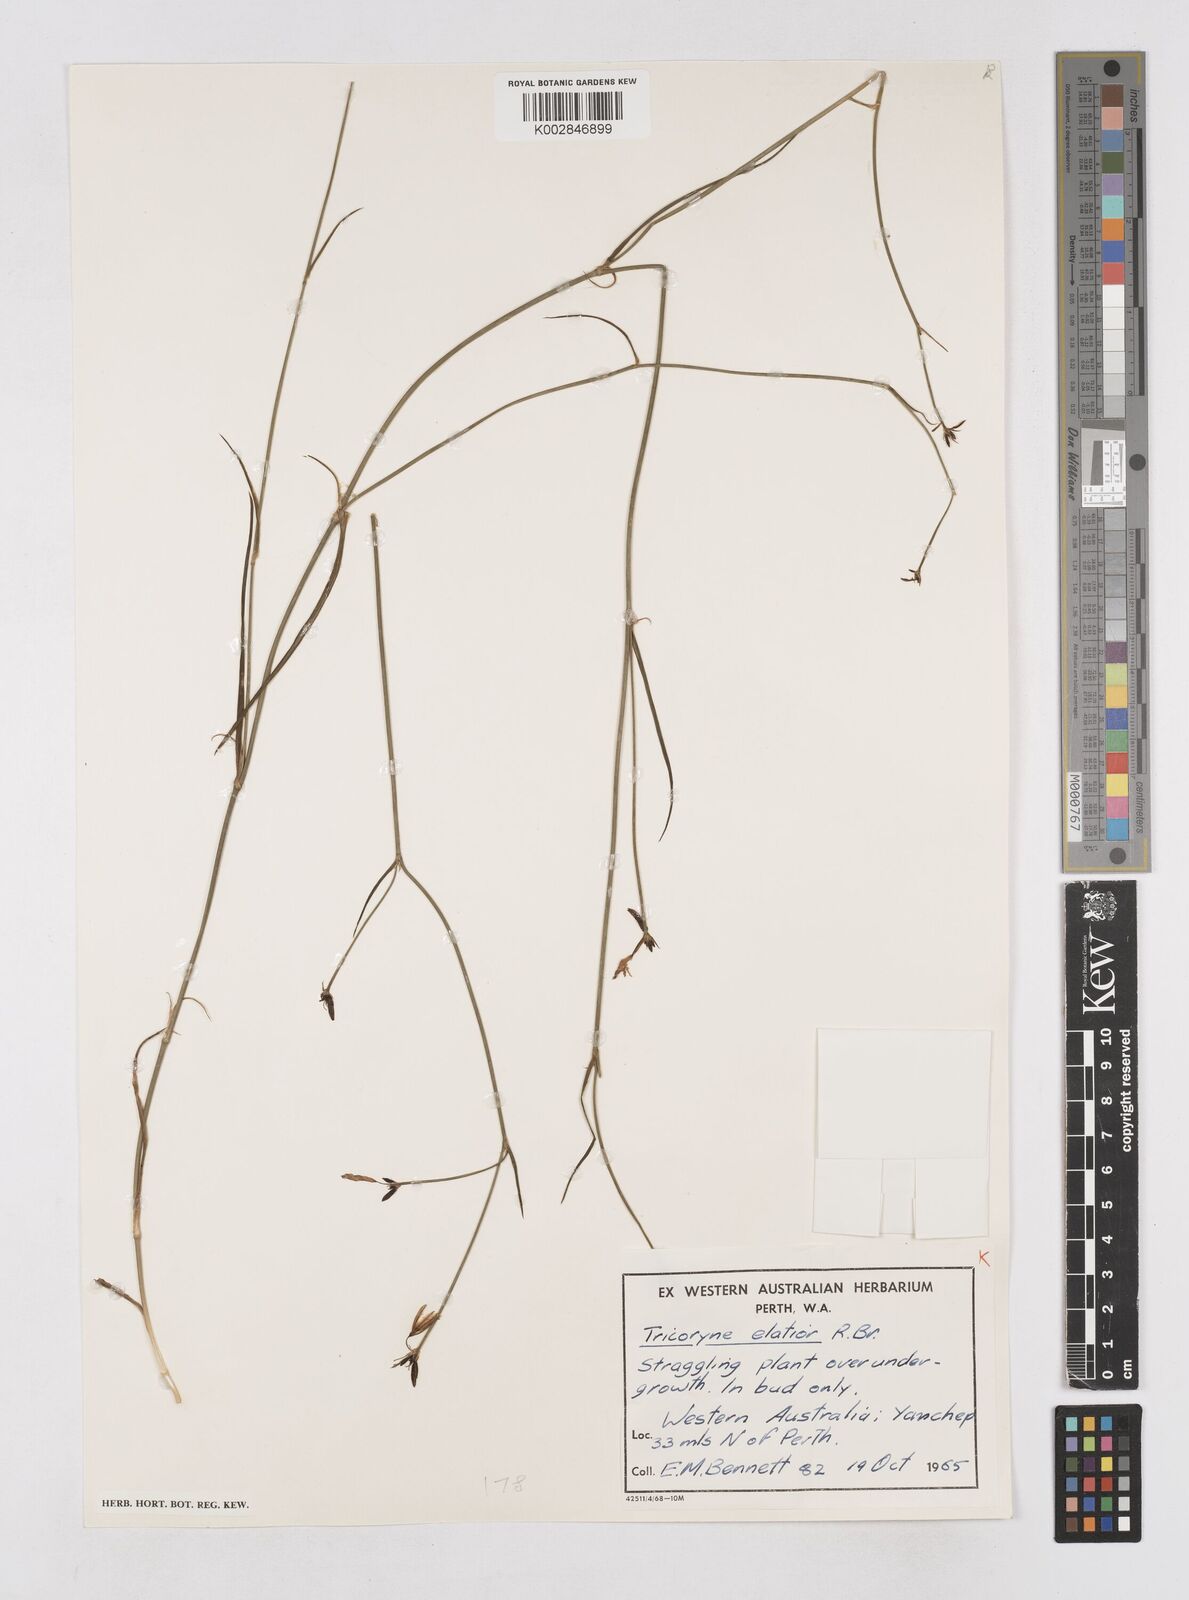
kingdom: Plantae
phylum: Tracheophyta
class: Liliopsida
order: Asparagales
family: Asphodelaceae
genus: Tricoryne
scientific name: Tricoryne elatior
